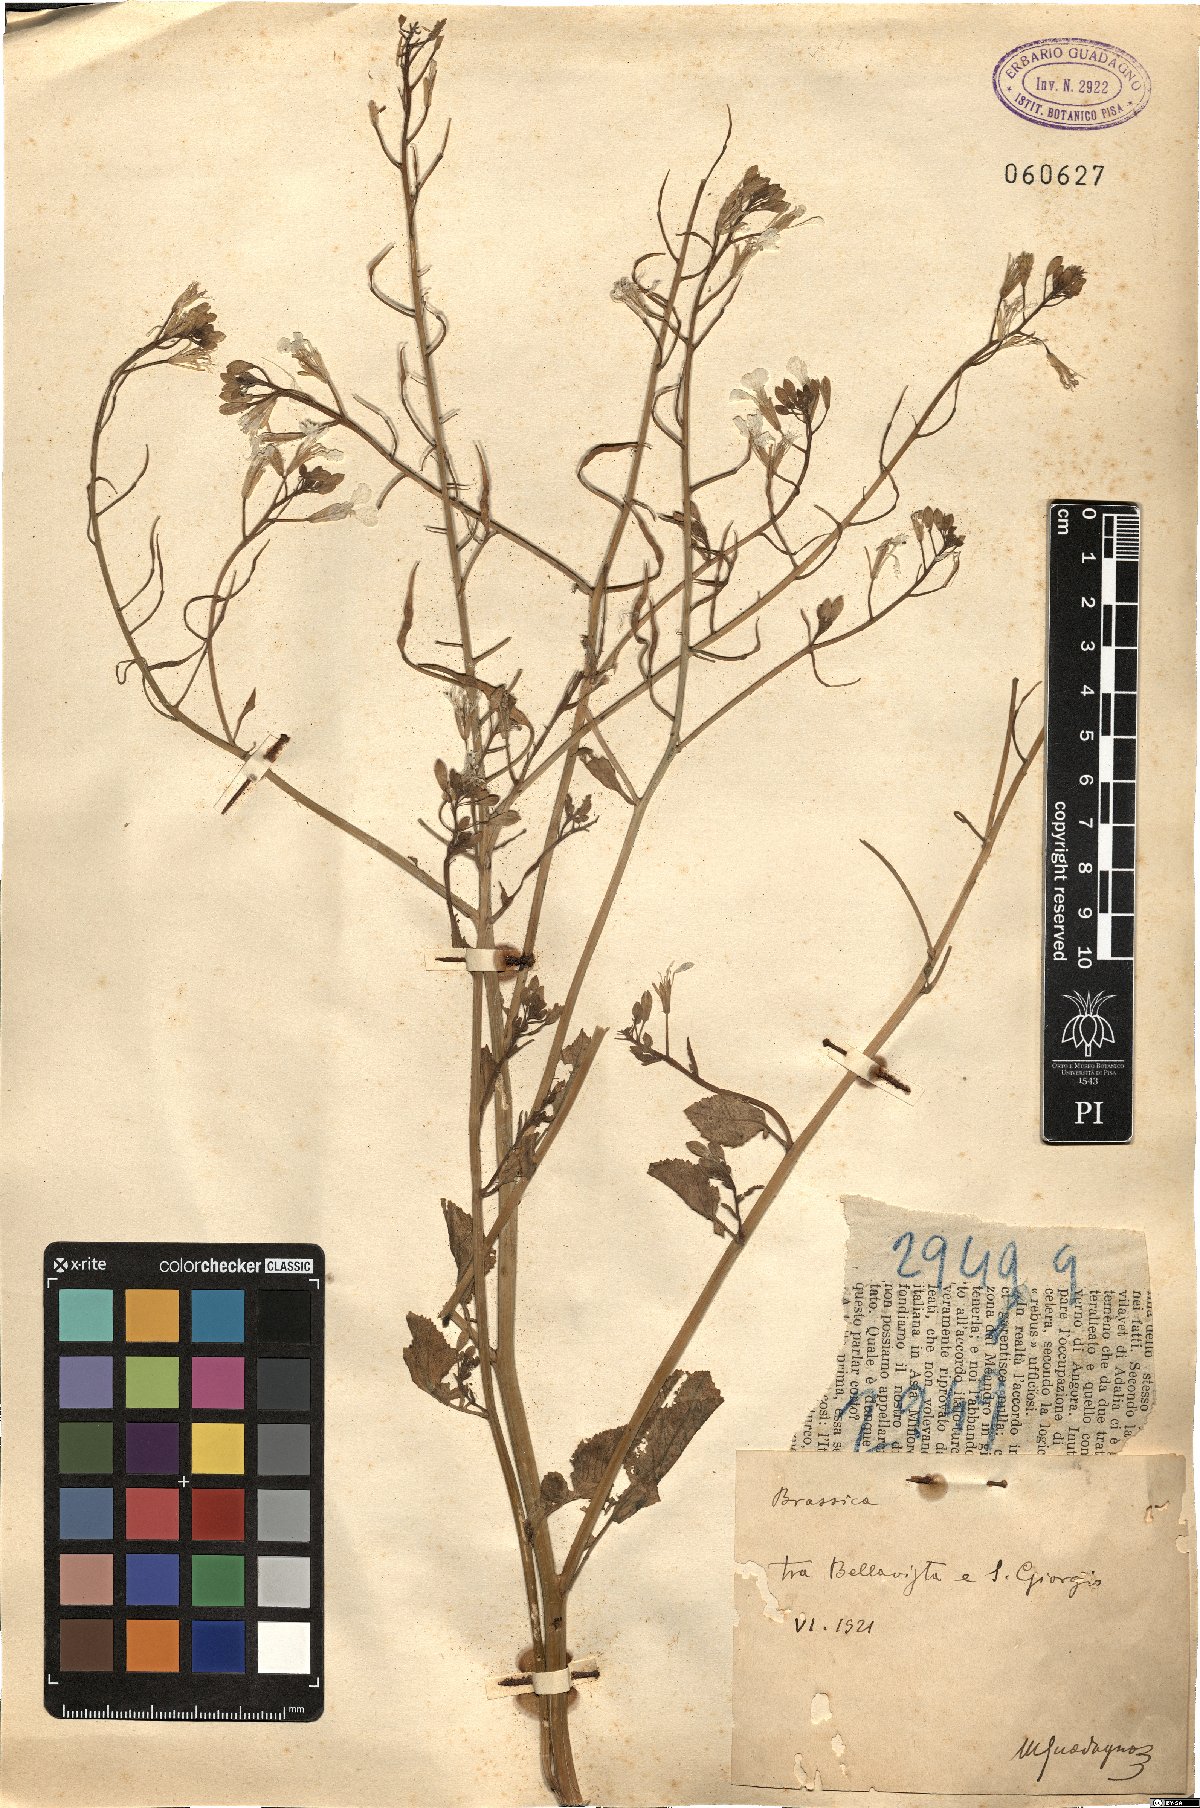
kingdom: Plantae
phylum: Tracheophyta
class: Magnoliopsida
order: Brassicales
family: Brassicaceae
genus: Brassica
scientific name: Brassica
